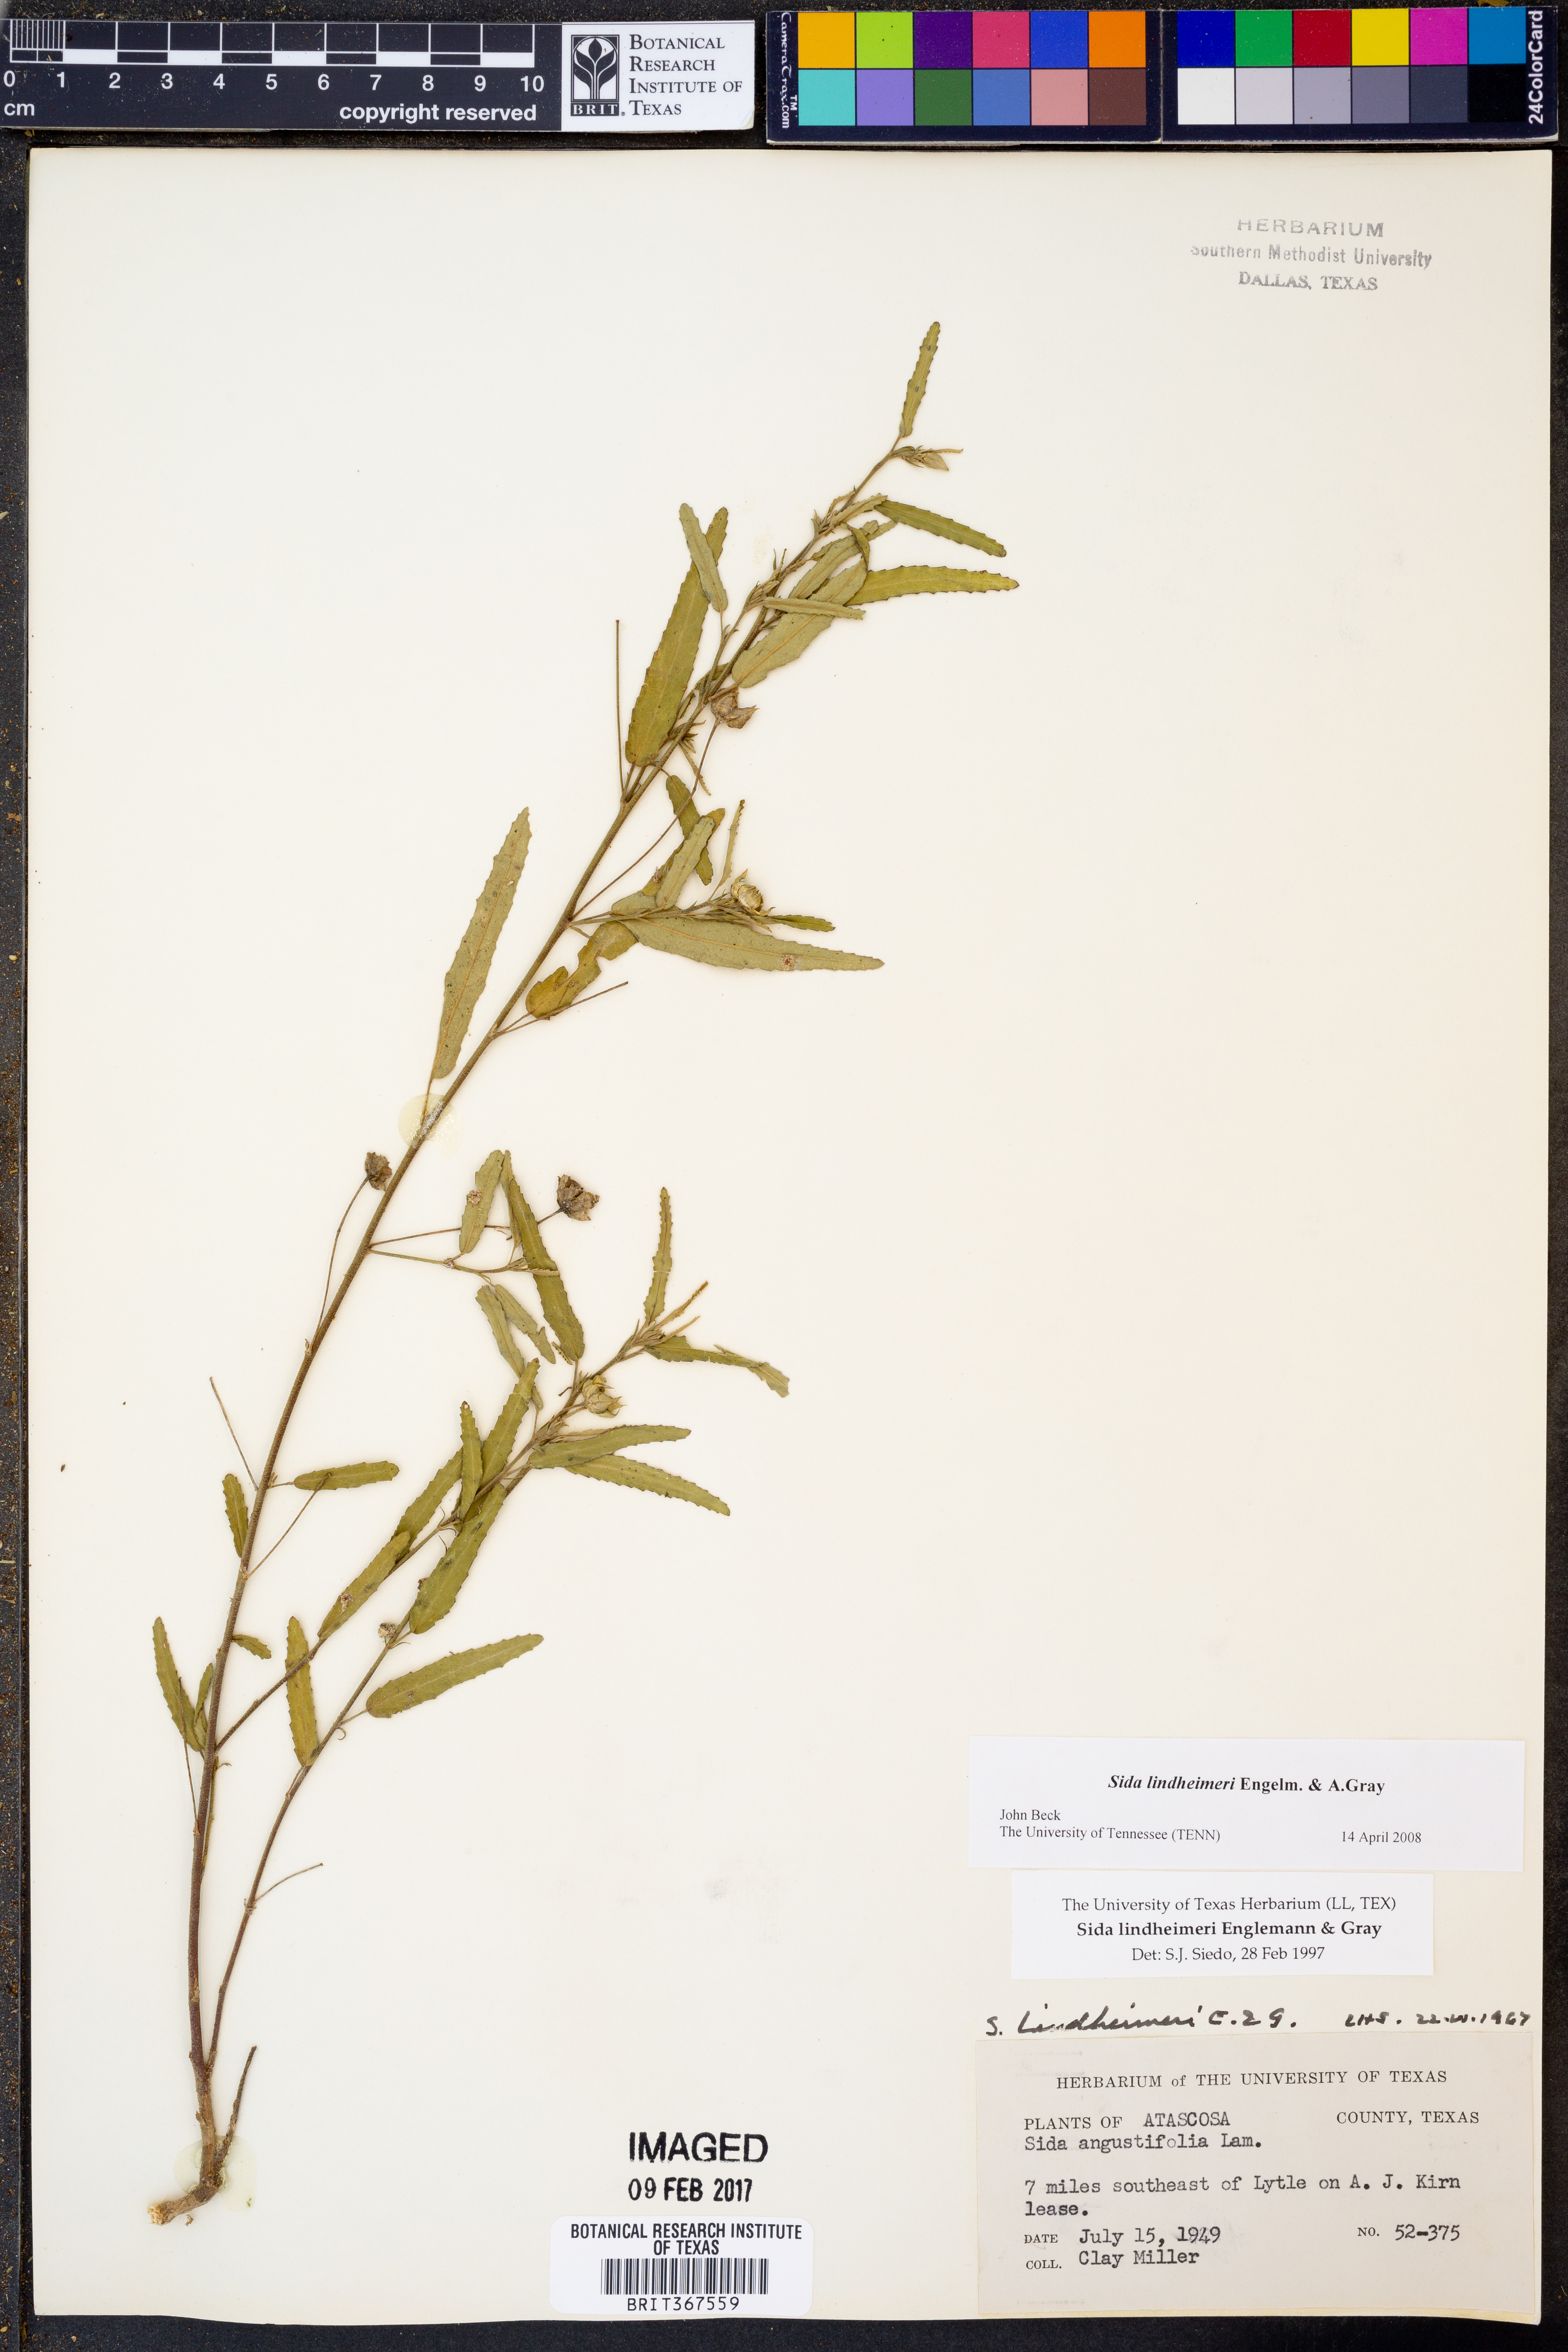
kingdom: Plantae
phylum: Tracheophyta
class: Magnoliopsida
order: Malvales
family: Malvaceae
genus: Sida
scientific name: Sida lindheimeri
